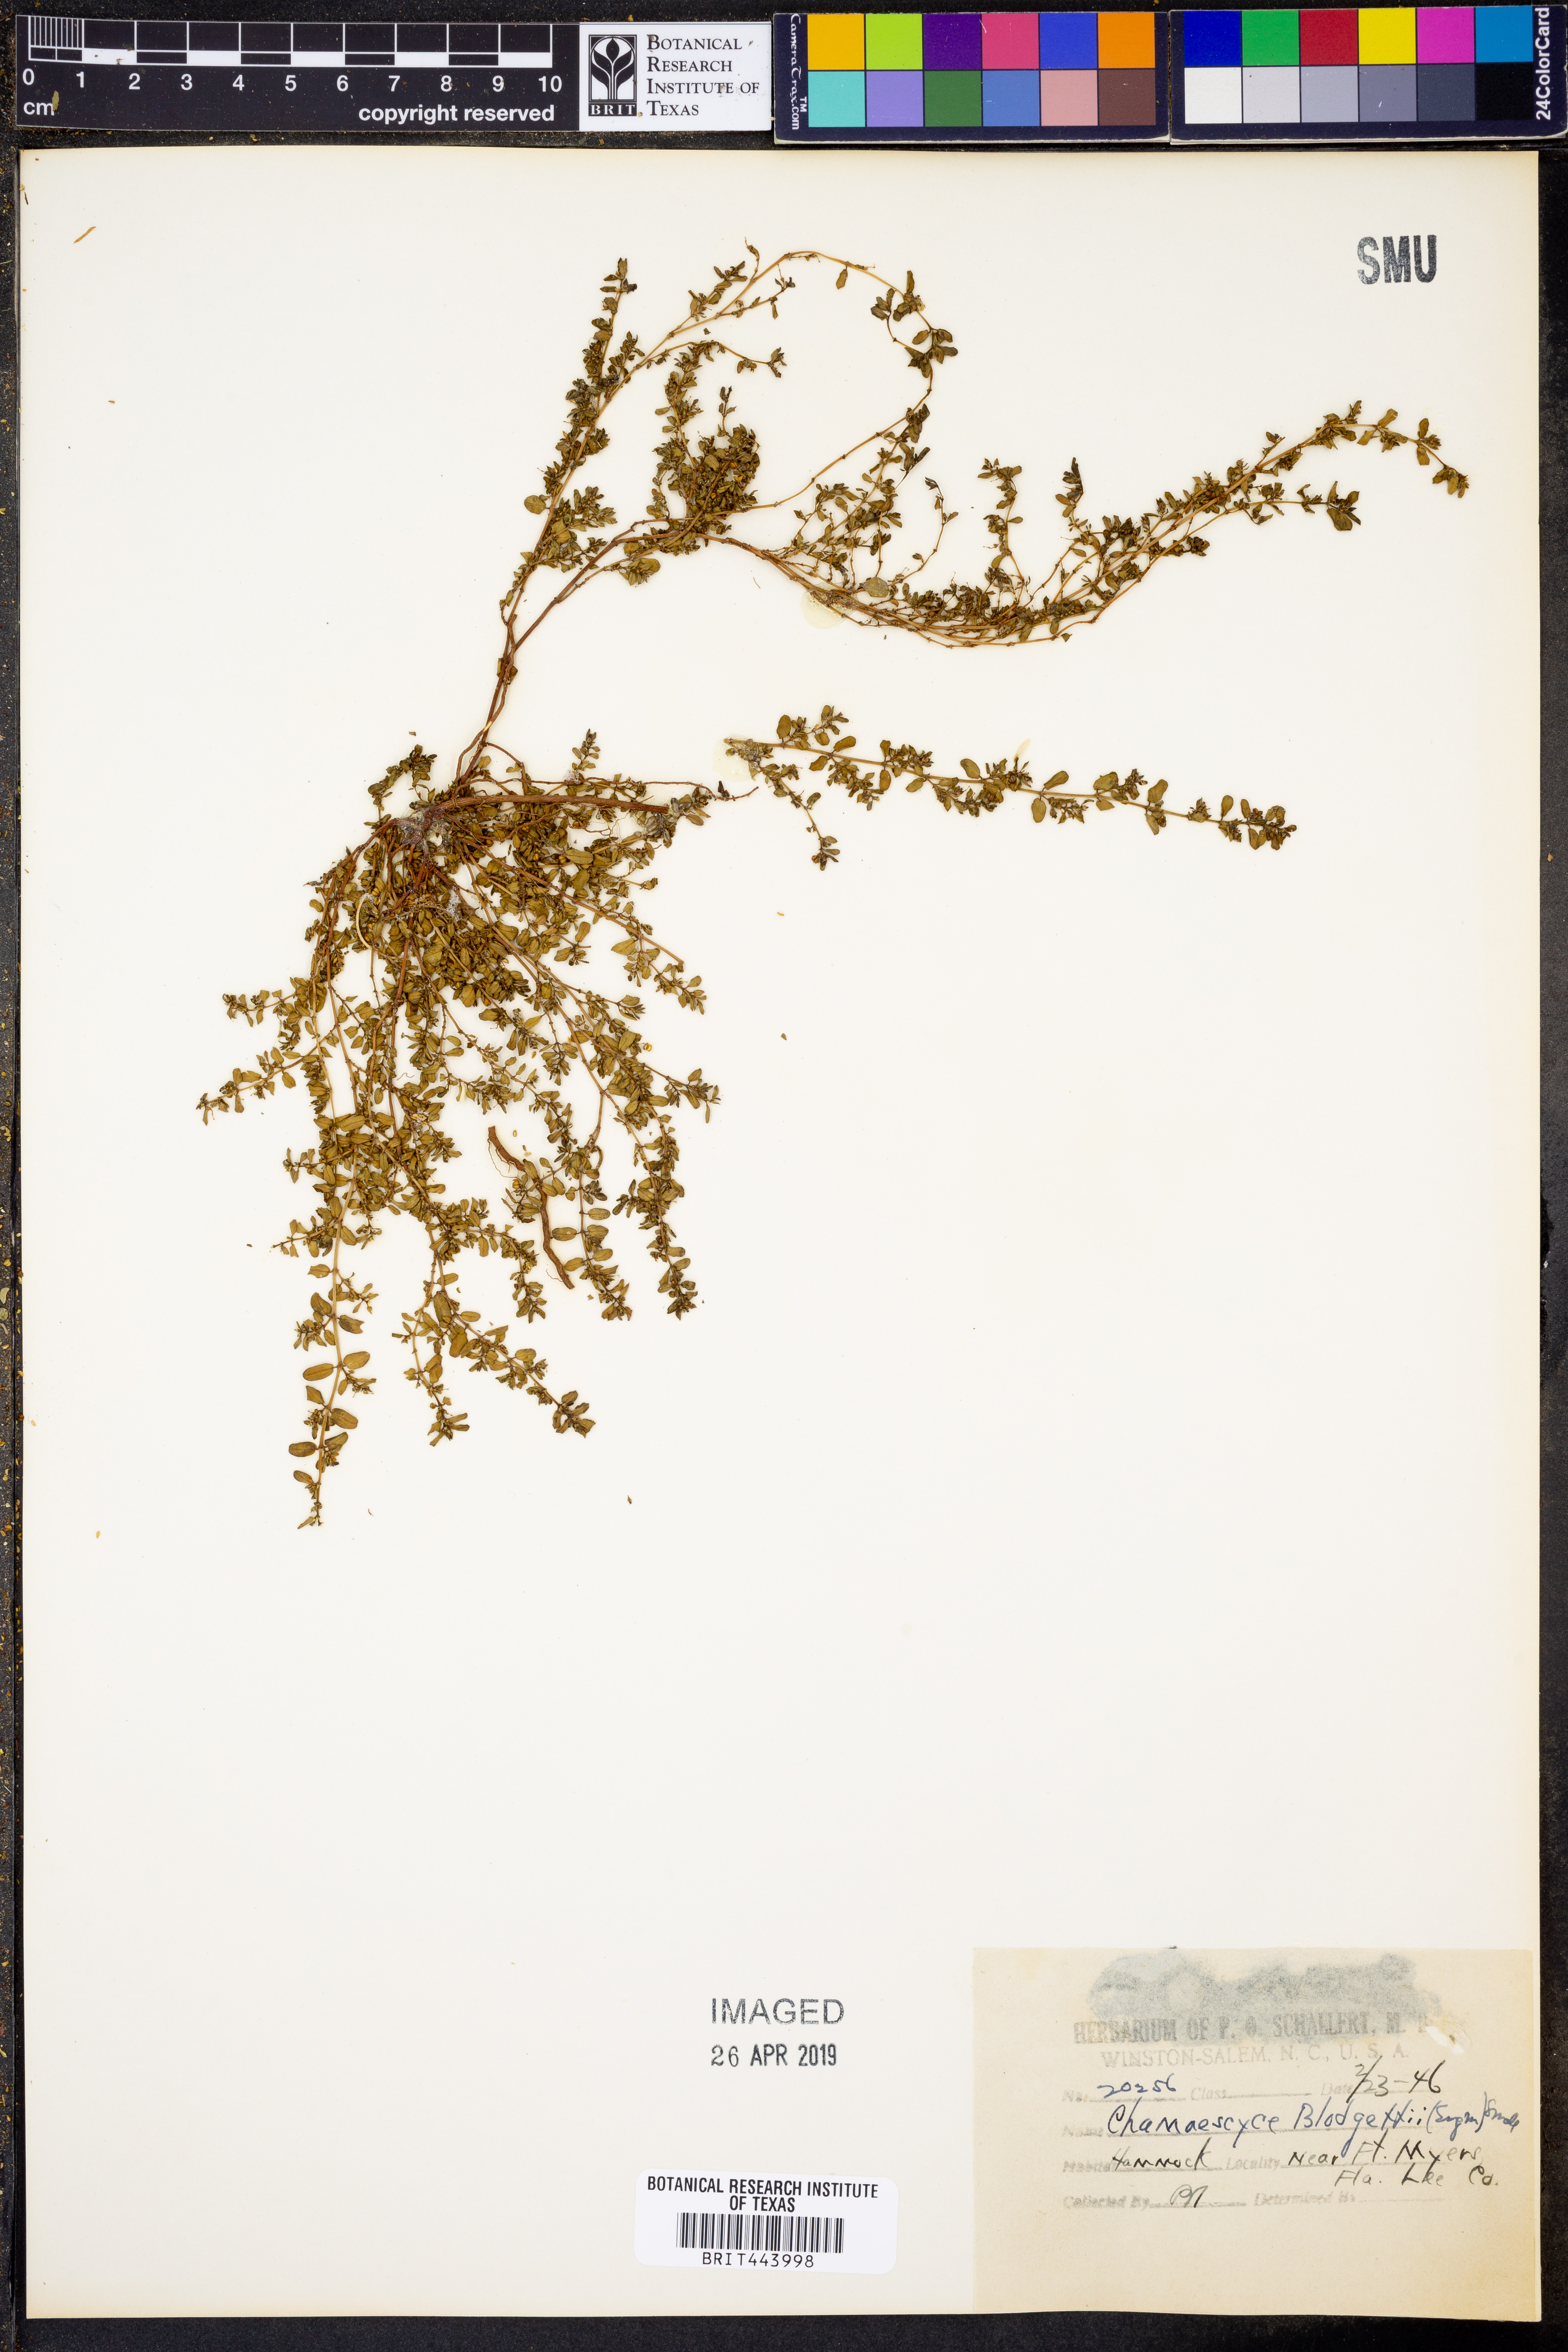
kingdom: Plantae
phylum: Tracheophyta
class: Magnoliopsida
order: Malpighiales
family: Euphorbiaceae
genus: Euphorbia
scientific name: Euphorbia blodgettii
